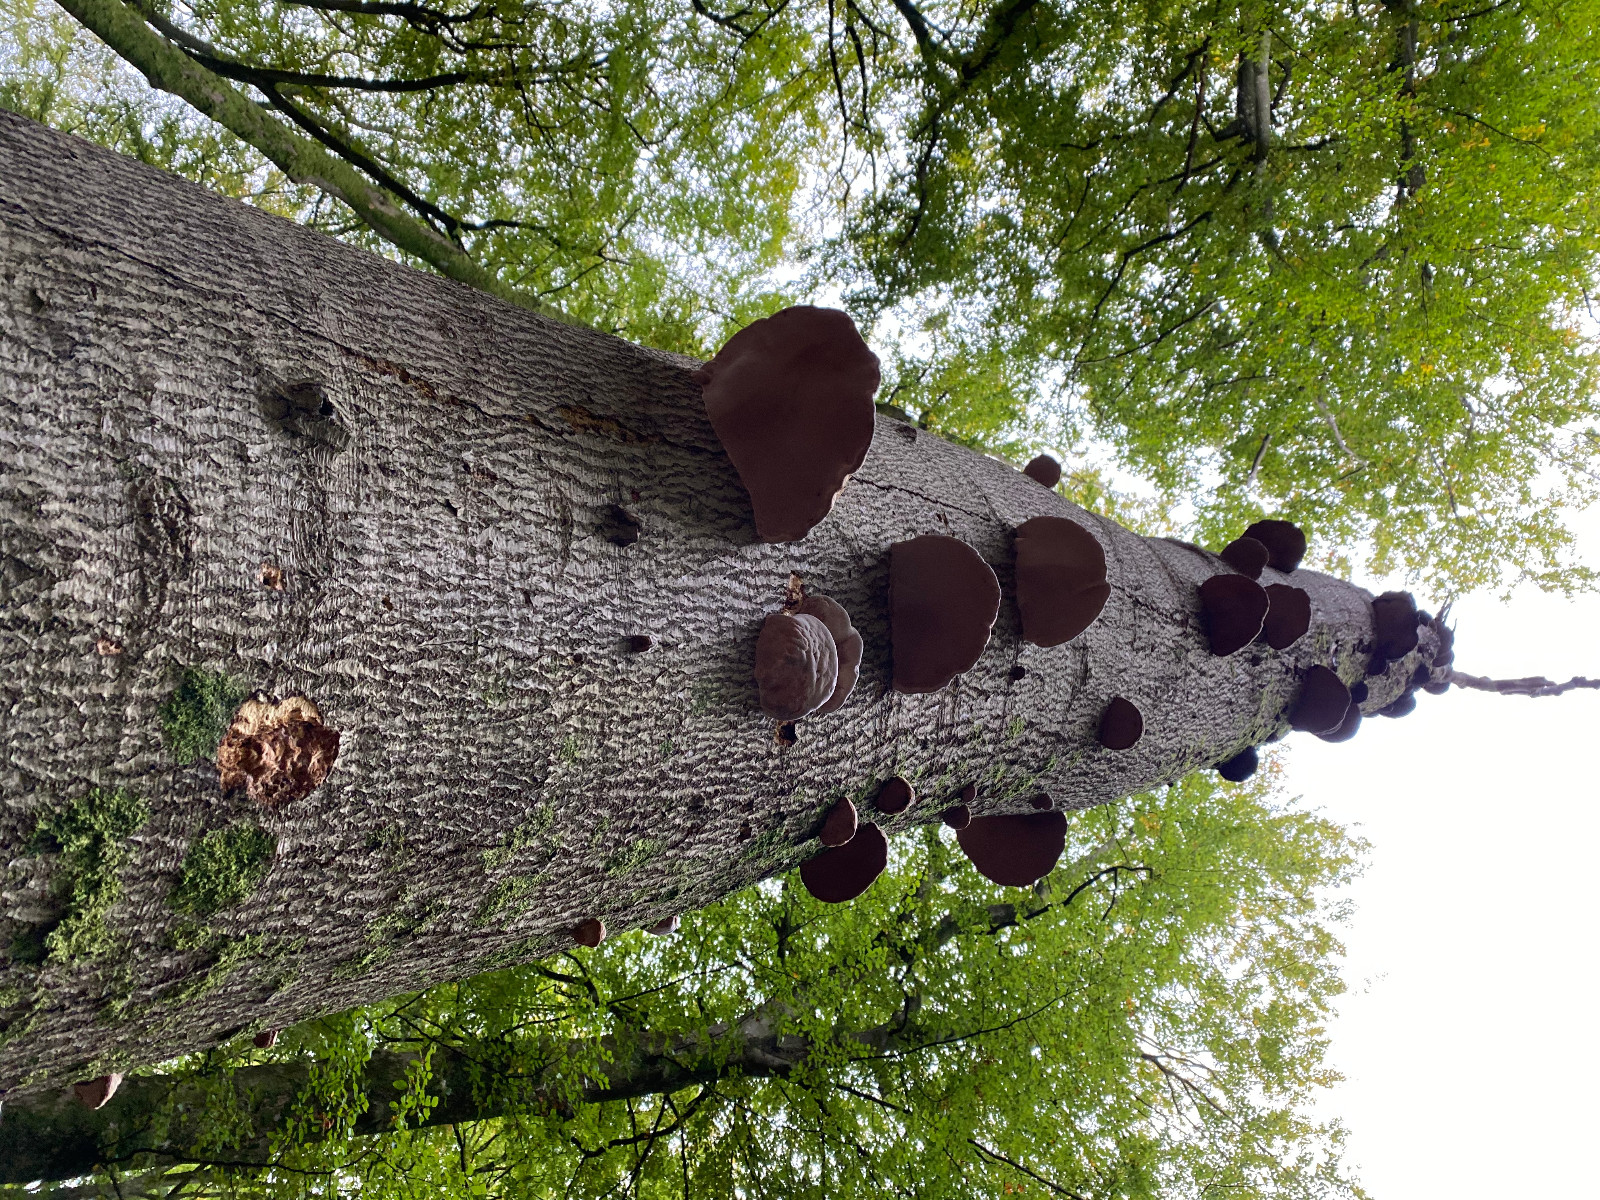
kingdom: Fungi
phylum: Basidiomycota
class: Agaricomycetes
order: Polyporales
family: Polyporaceae
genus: Fomes
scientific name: Fomes fomentarius
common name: tøndersvamp
